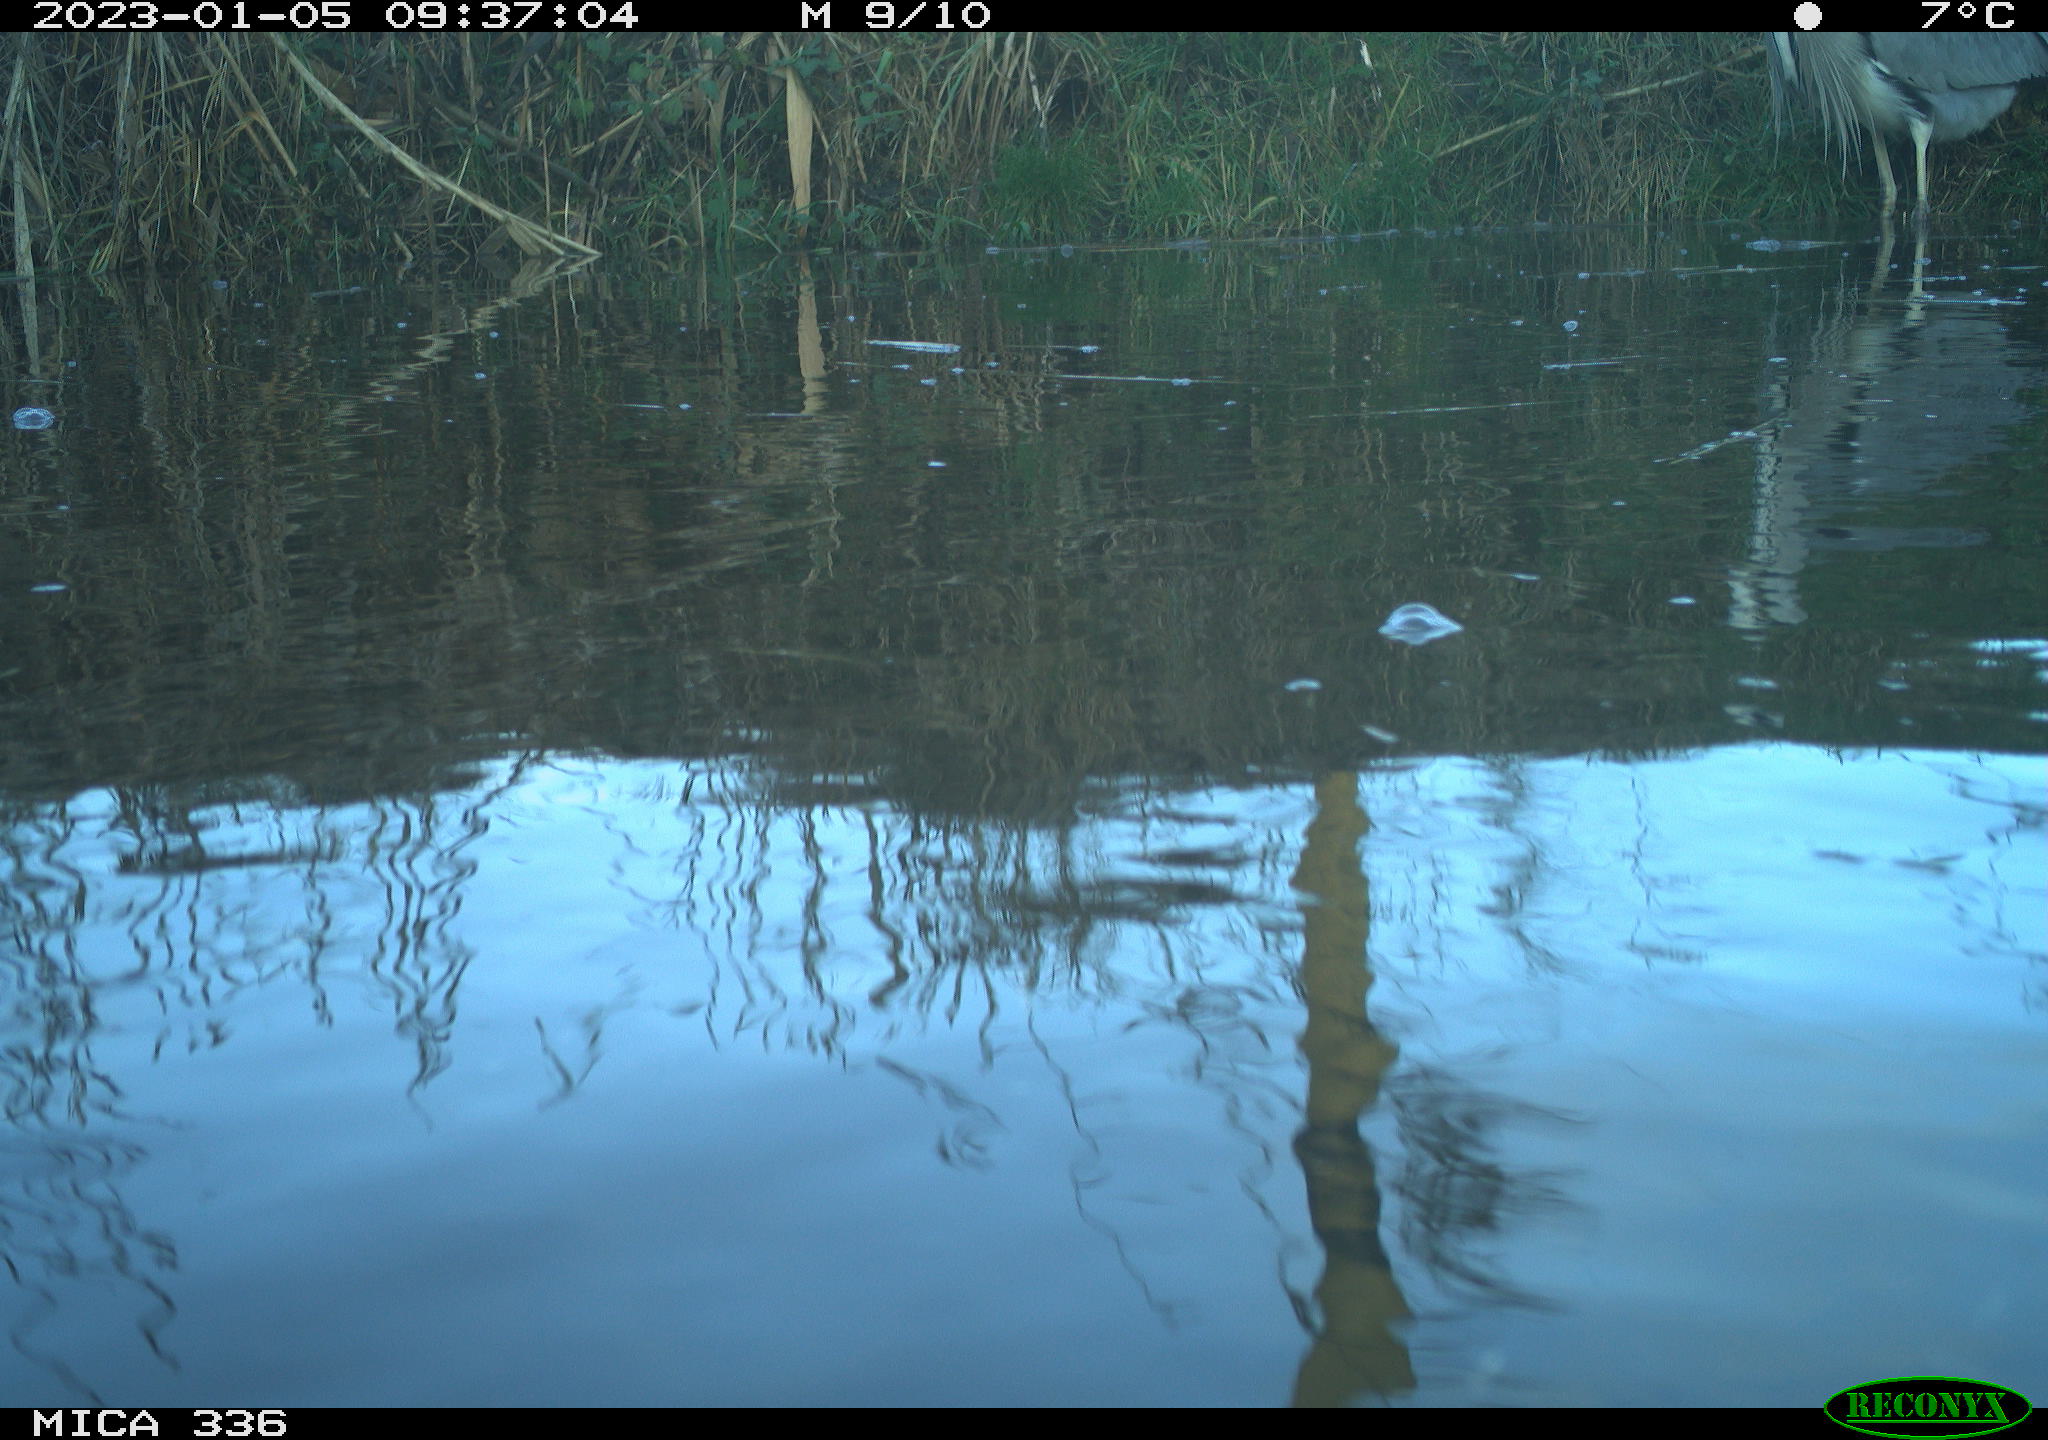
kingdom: Animalia
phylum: Chordata
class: Aves
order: Pelecaniformes
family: Ardeidae
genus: Ardea
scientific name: Ardea cinerea
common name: Grey heron
